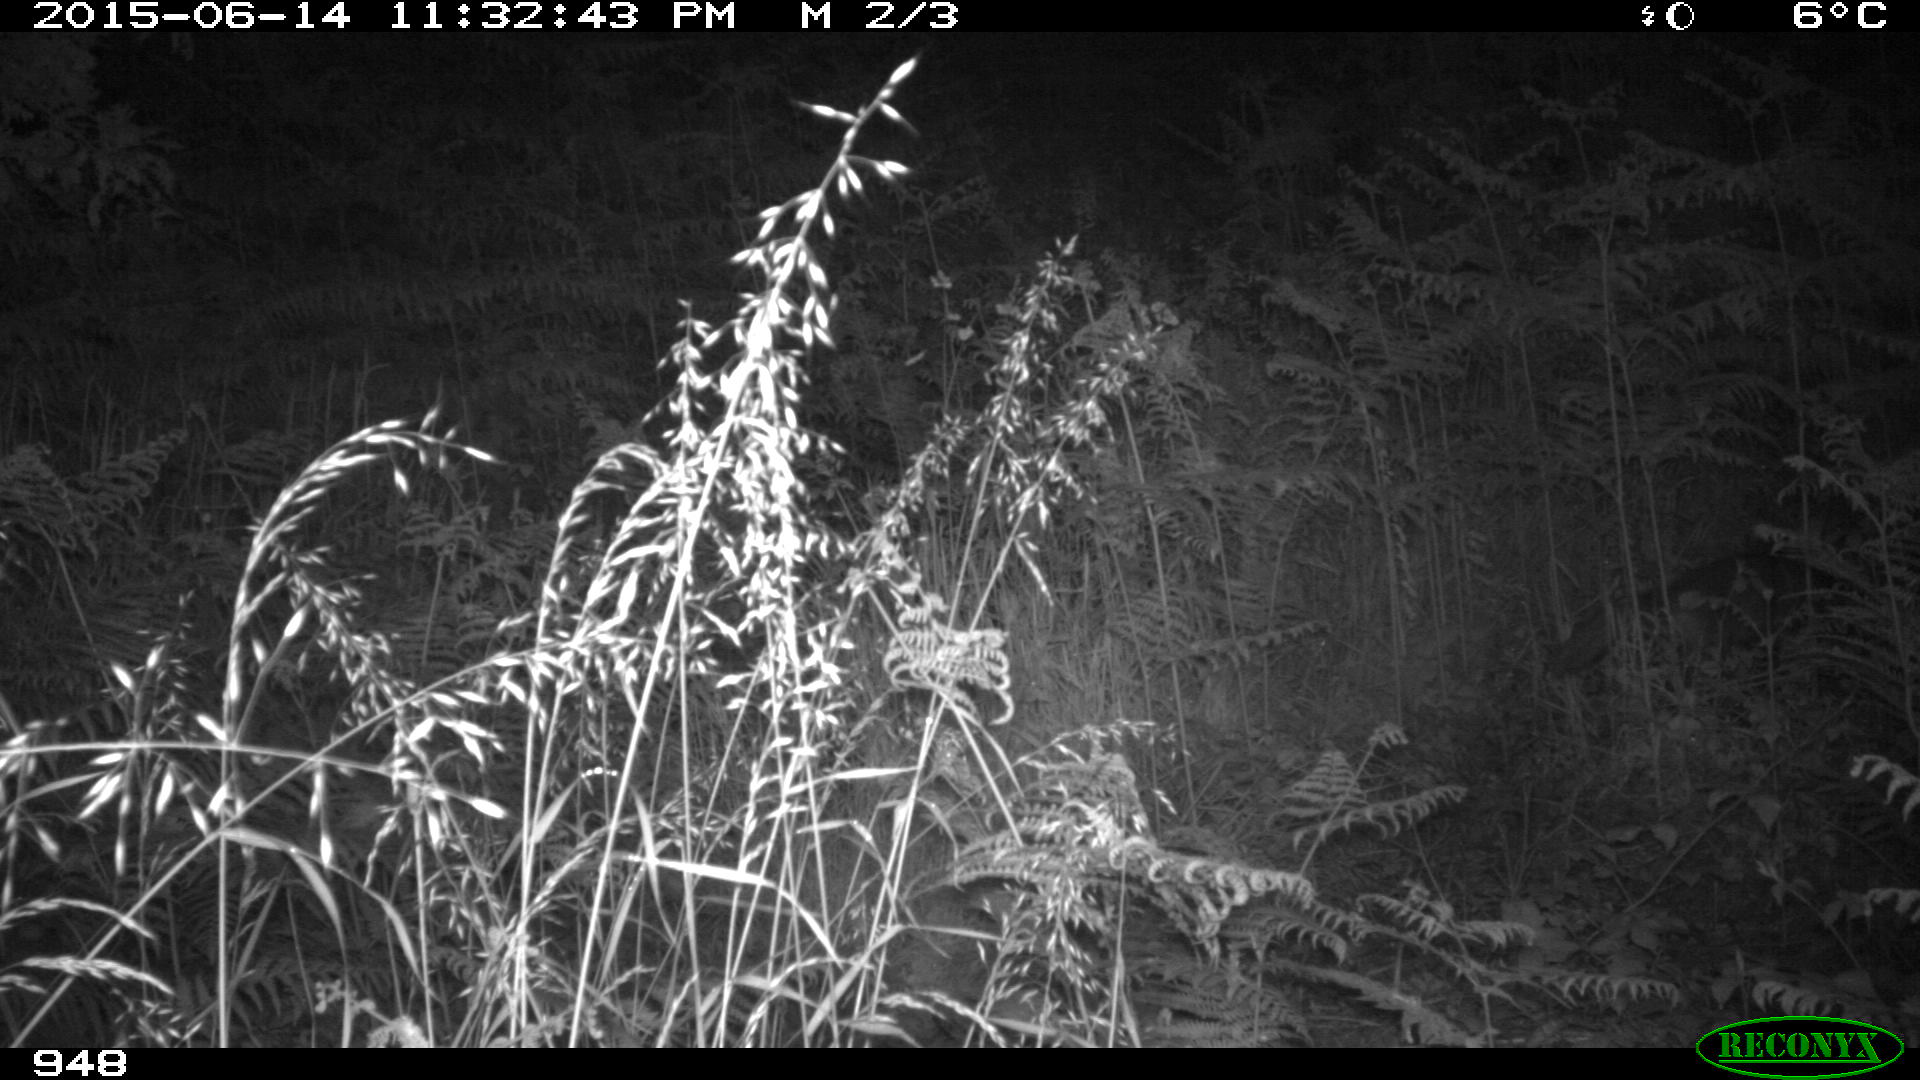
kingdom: Animalia
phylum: Chordata
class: Mammalia
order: Carnivora
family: Canidae
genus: Vulpes
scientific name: Vulpes vulpes
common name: Red fox
